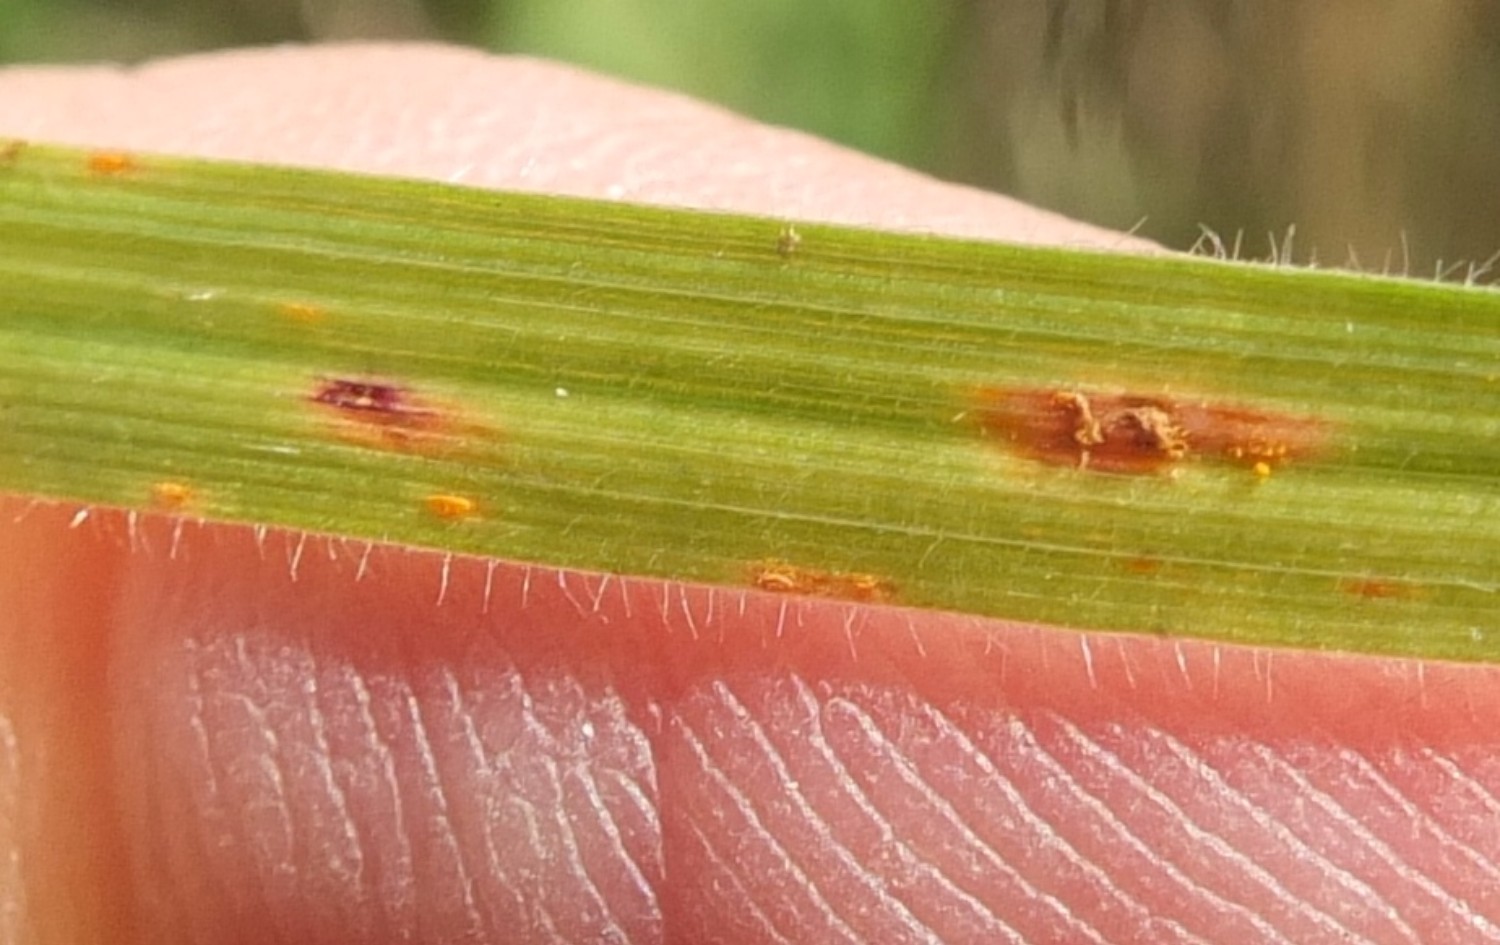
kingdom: Fungi
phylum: Basidiomycota
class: Pucciniomycetes
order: Pucciniales
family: Pucciniaceae
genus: Puccinia
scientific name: Puccinia
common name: tvecellerust
